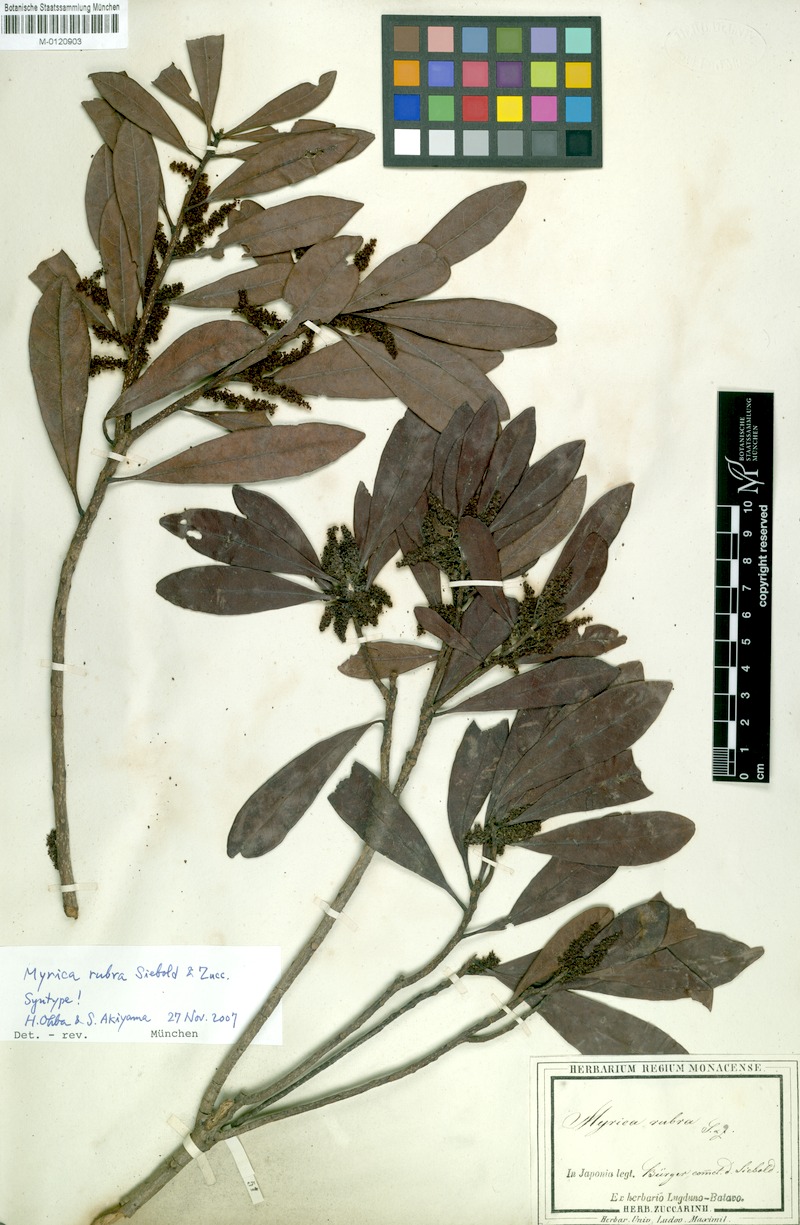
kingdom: Plantae
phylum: Tracheophyta
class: Magnoliopsida
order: Fagales
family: Myricaceae
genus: Morella
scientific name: Morella rubra
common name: Red bayberry
